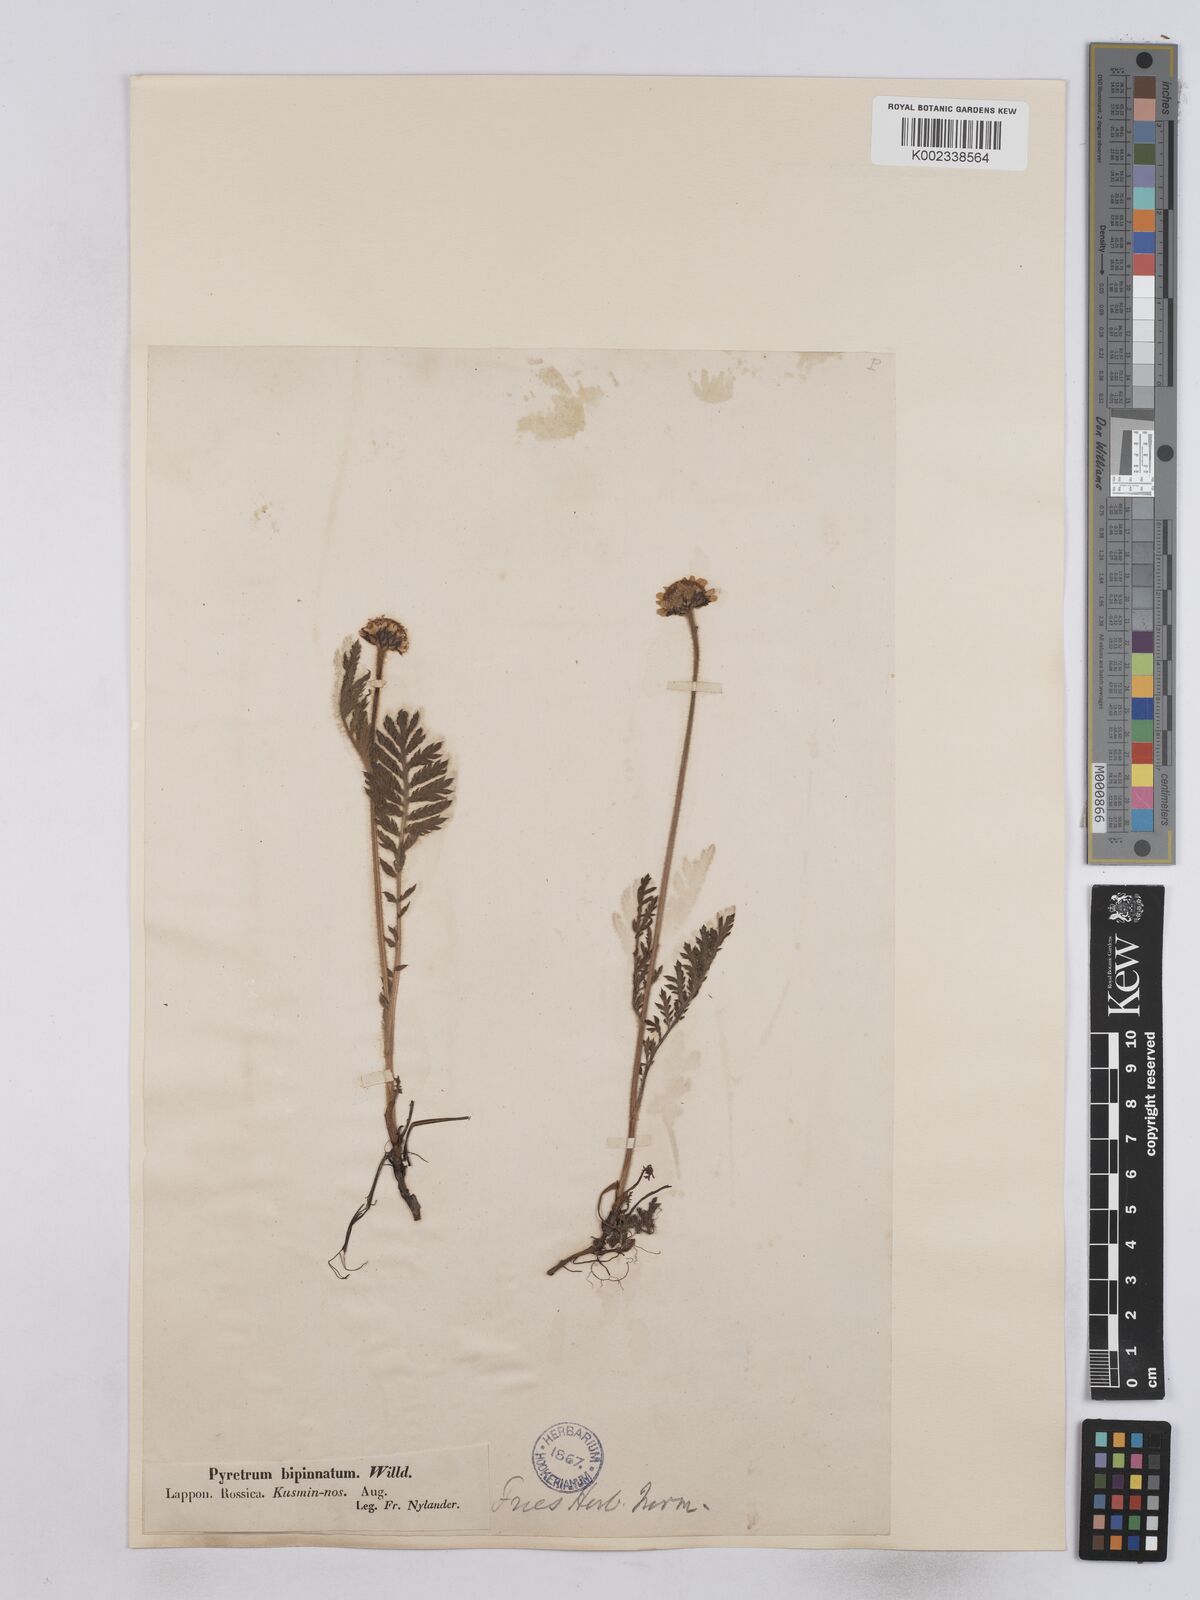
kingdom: Plantae
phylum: Tracheophyta
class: Magnoliopsida
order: Asterales
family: Asteraceae
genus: Tanacetum
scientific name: Tanacetum
